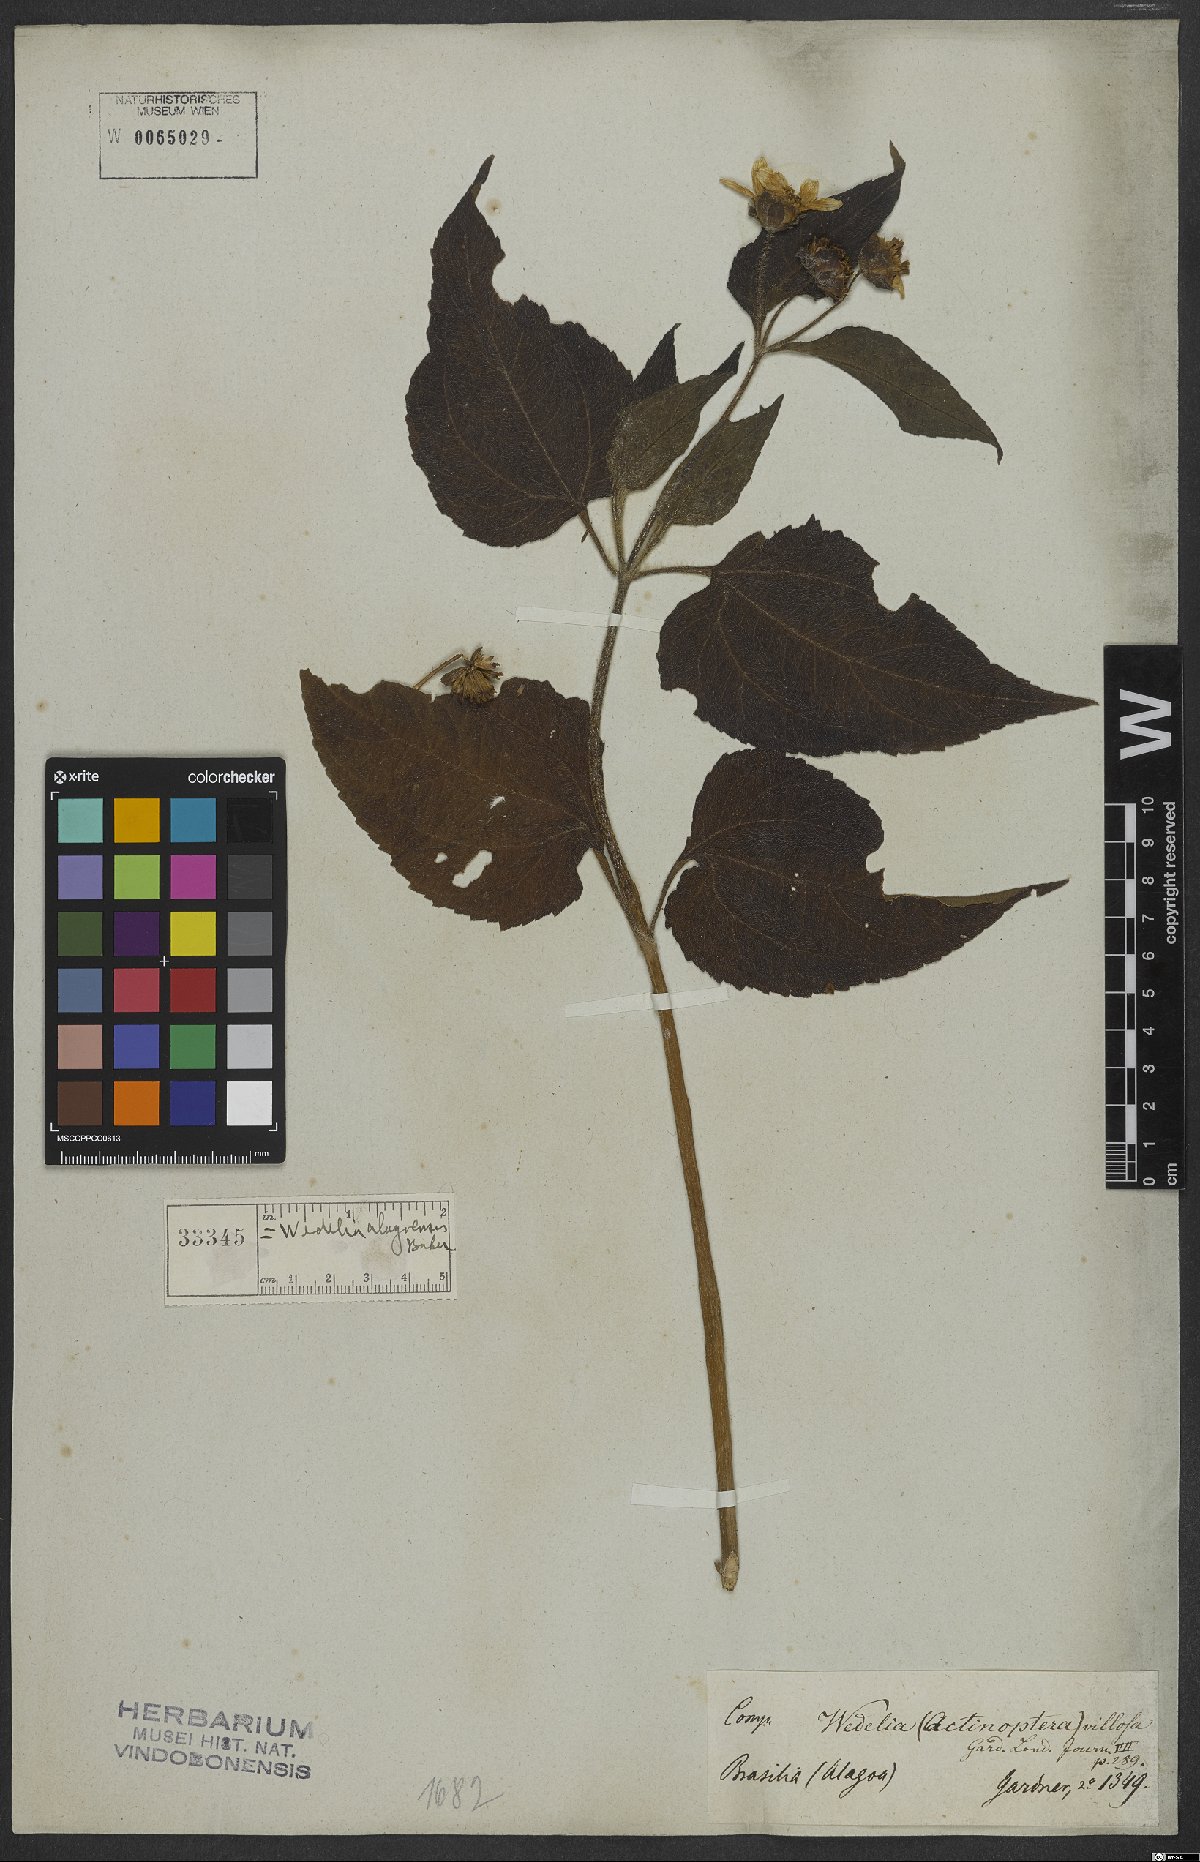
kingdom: Plantae
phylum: Tracheophyta
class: Magnoliopsida
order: Asterales
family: Asteraceae
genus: Wedelia
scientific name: Wedelia alagoensis
